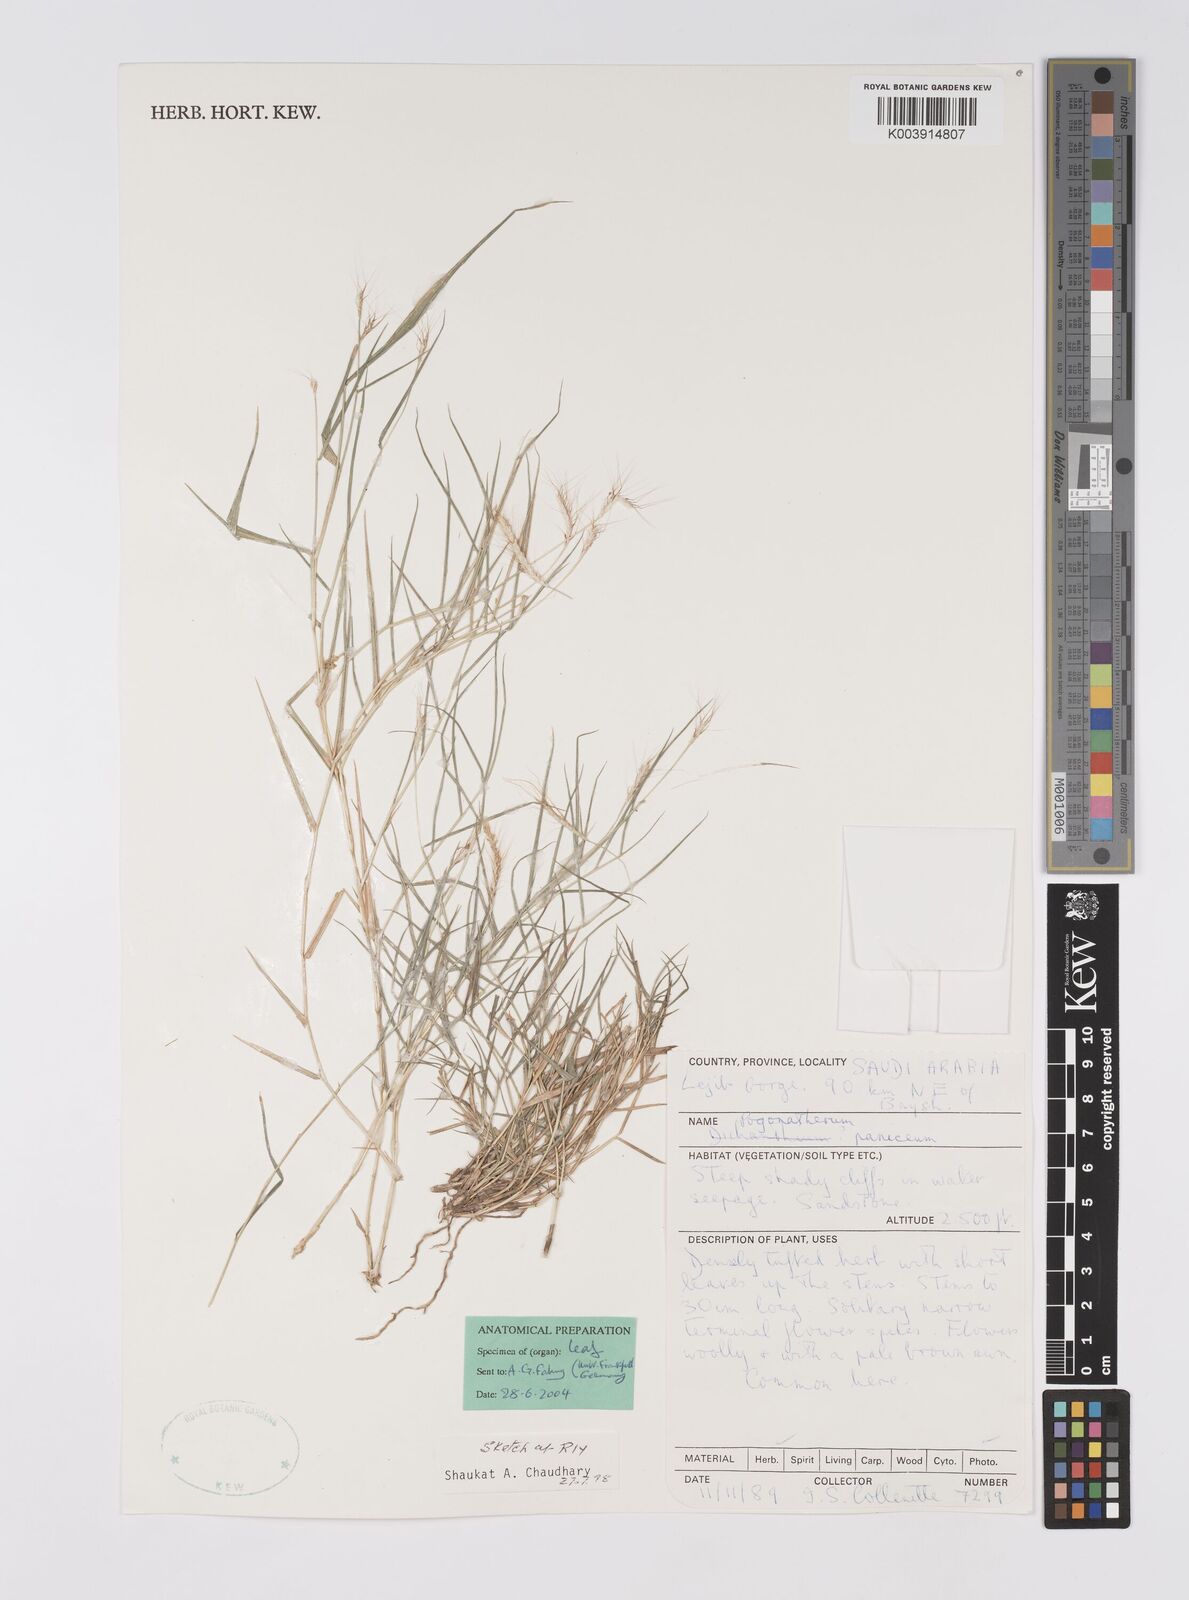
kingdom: Plantae
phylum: Tracheophyta
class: Liliopsida
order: Poales
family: Poaceae
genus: Pogonatherum
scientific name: Pogonatherum paniceum
